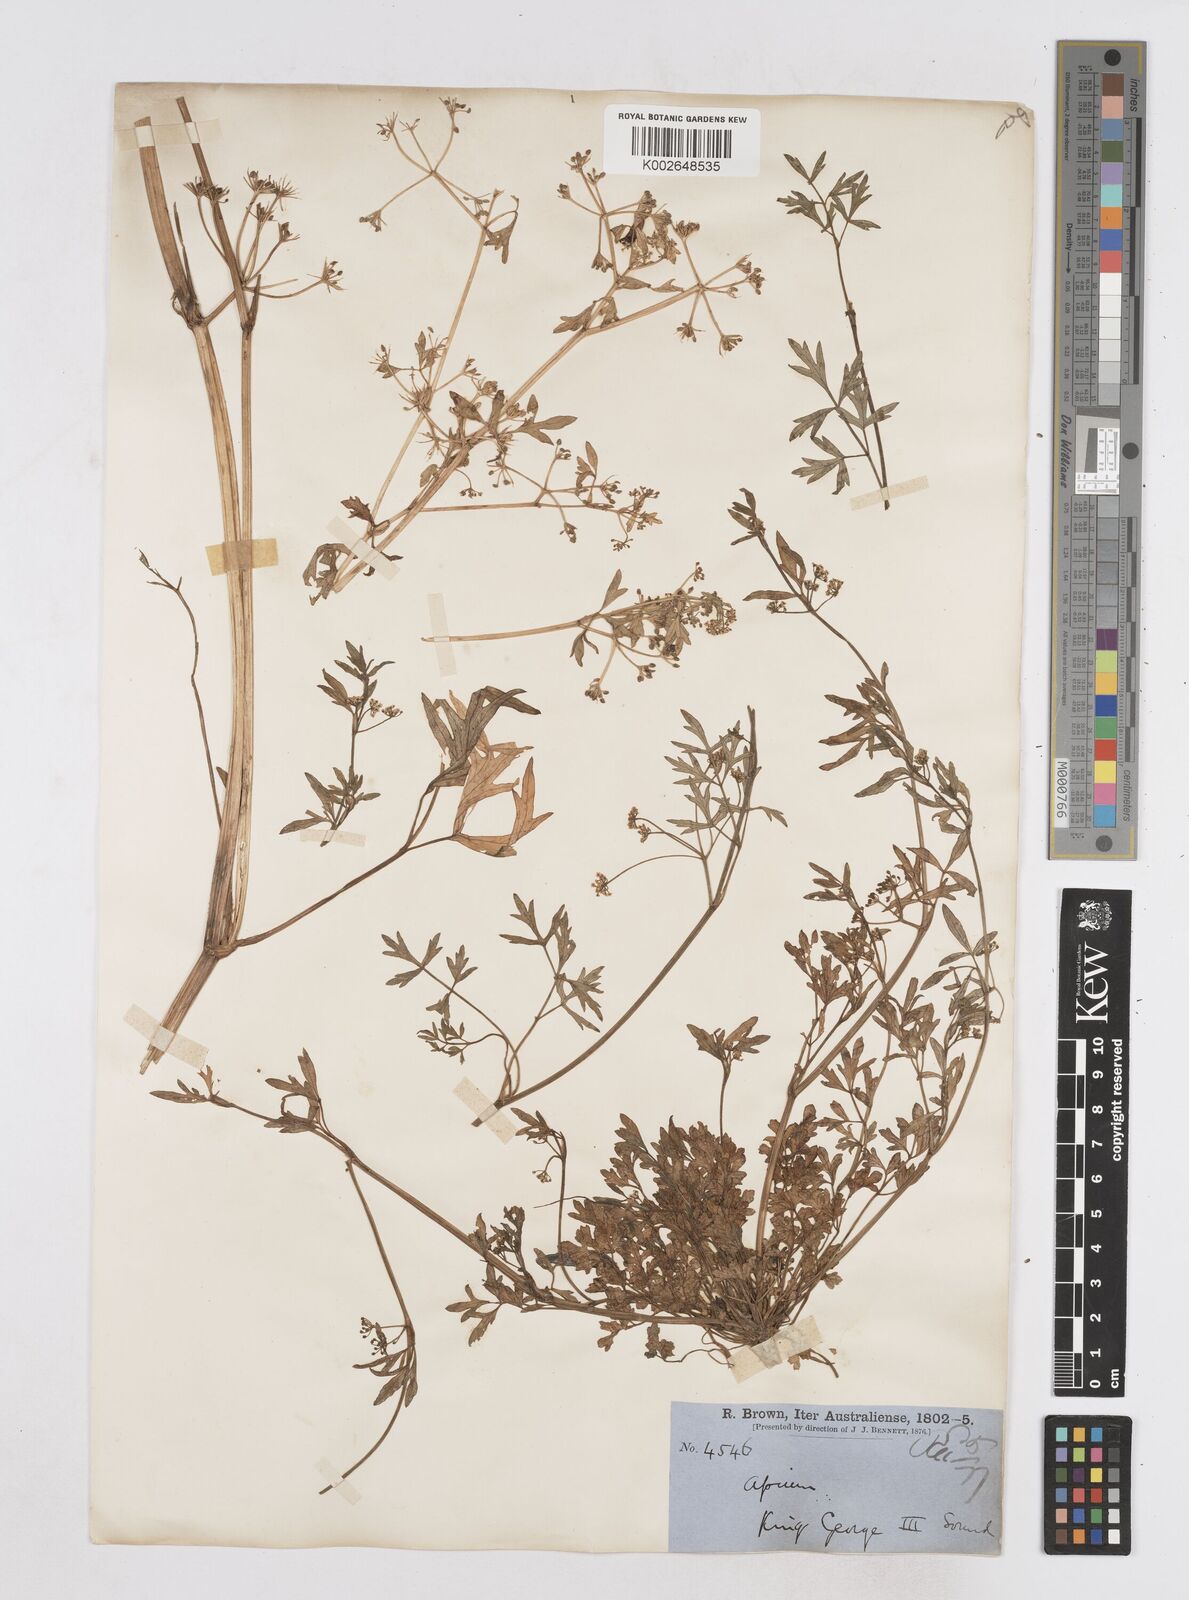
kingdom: Plantae
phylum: Tracheophyta
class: Magnoliopsida
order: Apiales
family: Apiaceae
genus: Apium
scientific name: Apium prostratum
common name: Prostrate marshwort
